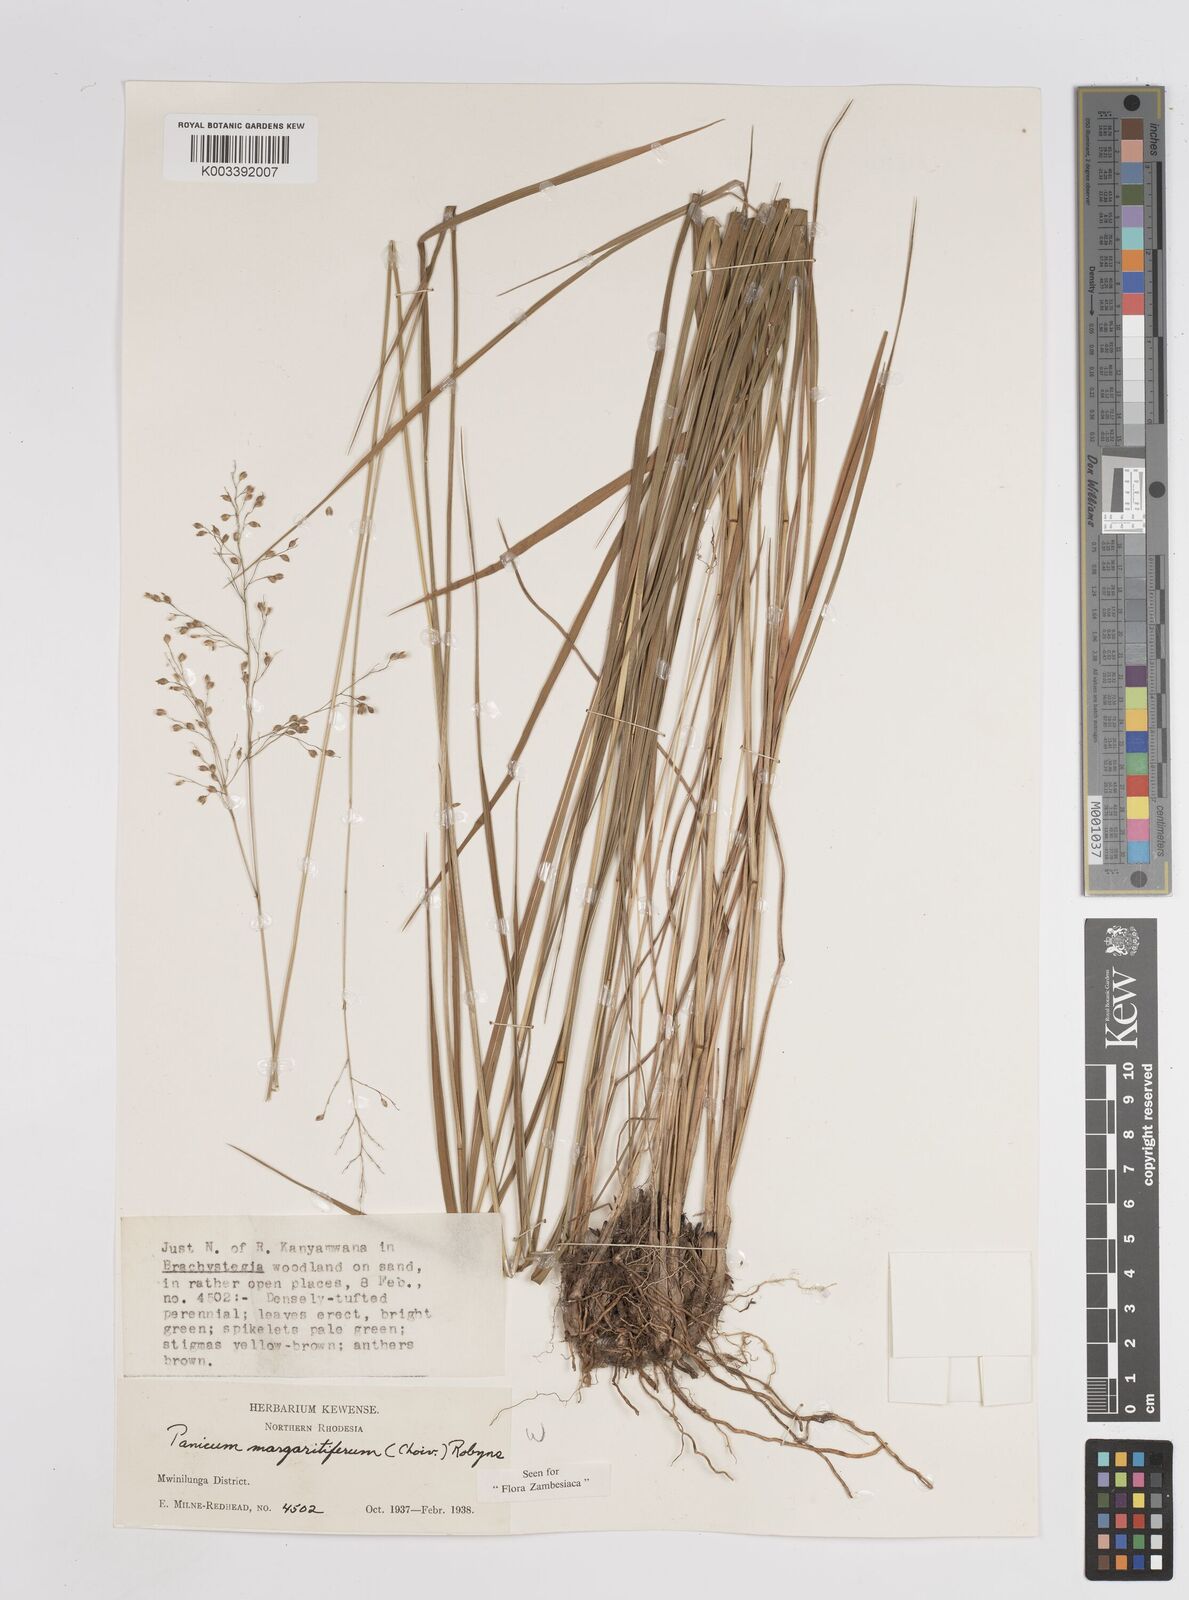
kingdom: Plantae
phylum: Tracheophyta
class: Liliopsida
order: Poales
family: Poaceae
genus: Sacciolepis
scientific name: Sacciolepis myuros
